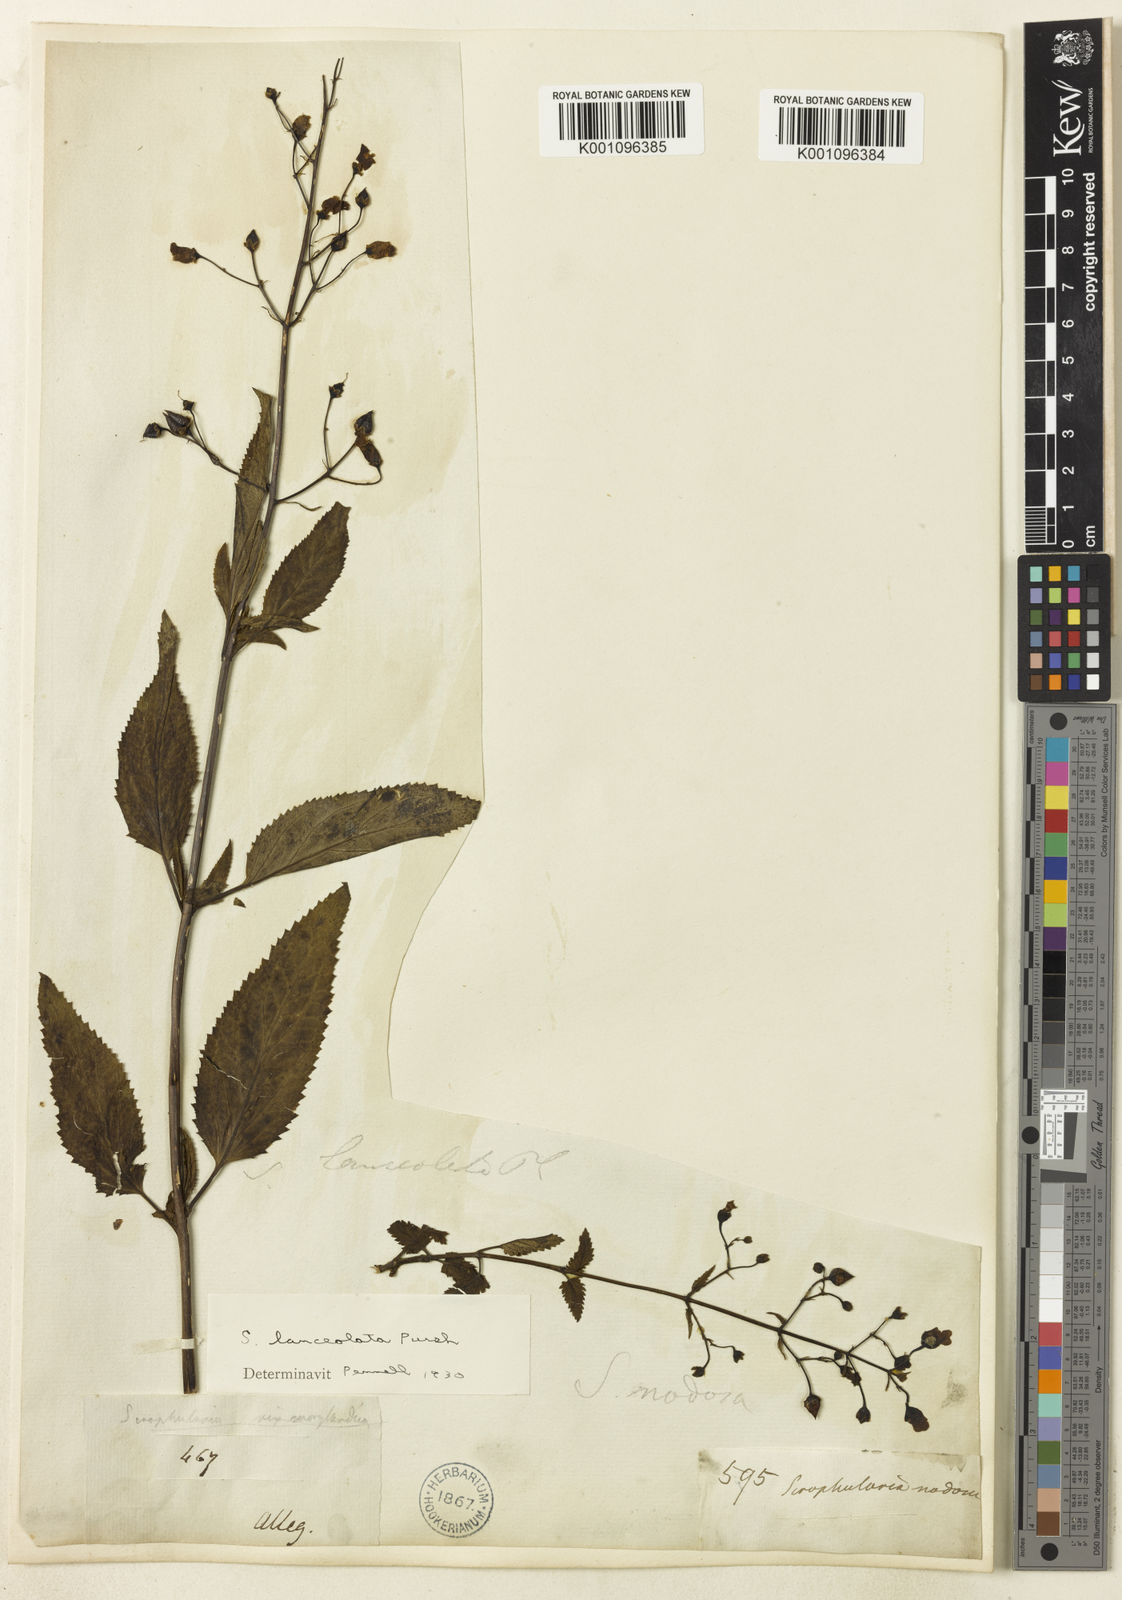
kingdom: Plantae
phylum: Tracheophyta
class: Magnoliopsida
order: Lamiales
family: Scrophulariaceae
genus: Scrophularia
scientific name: Scrophularia lanceolata
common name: American figwort
